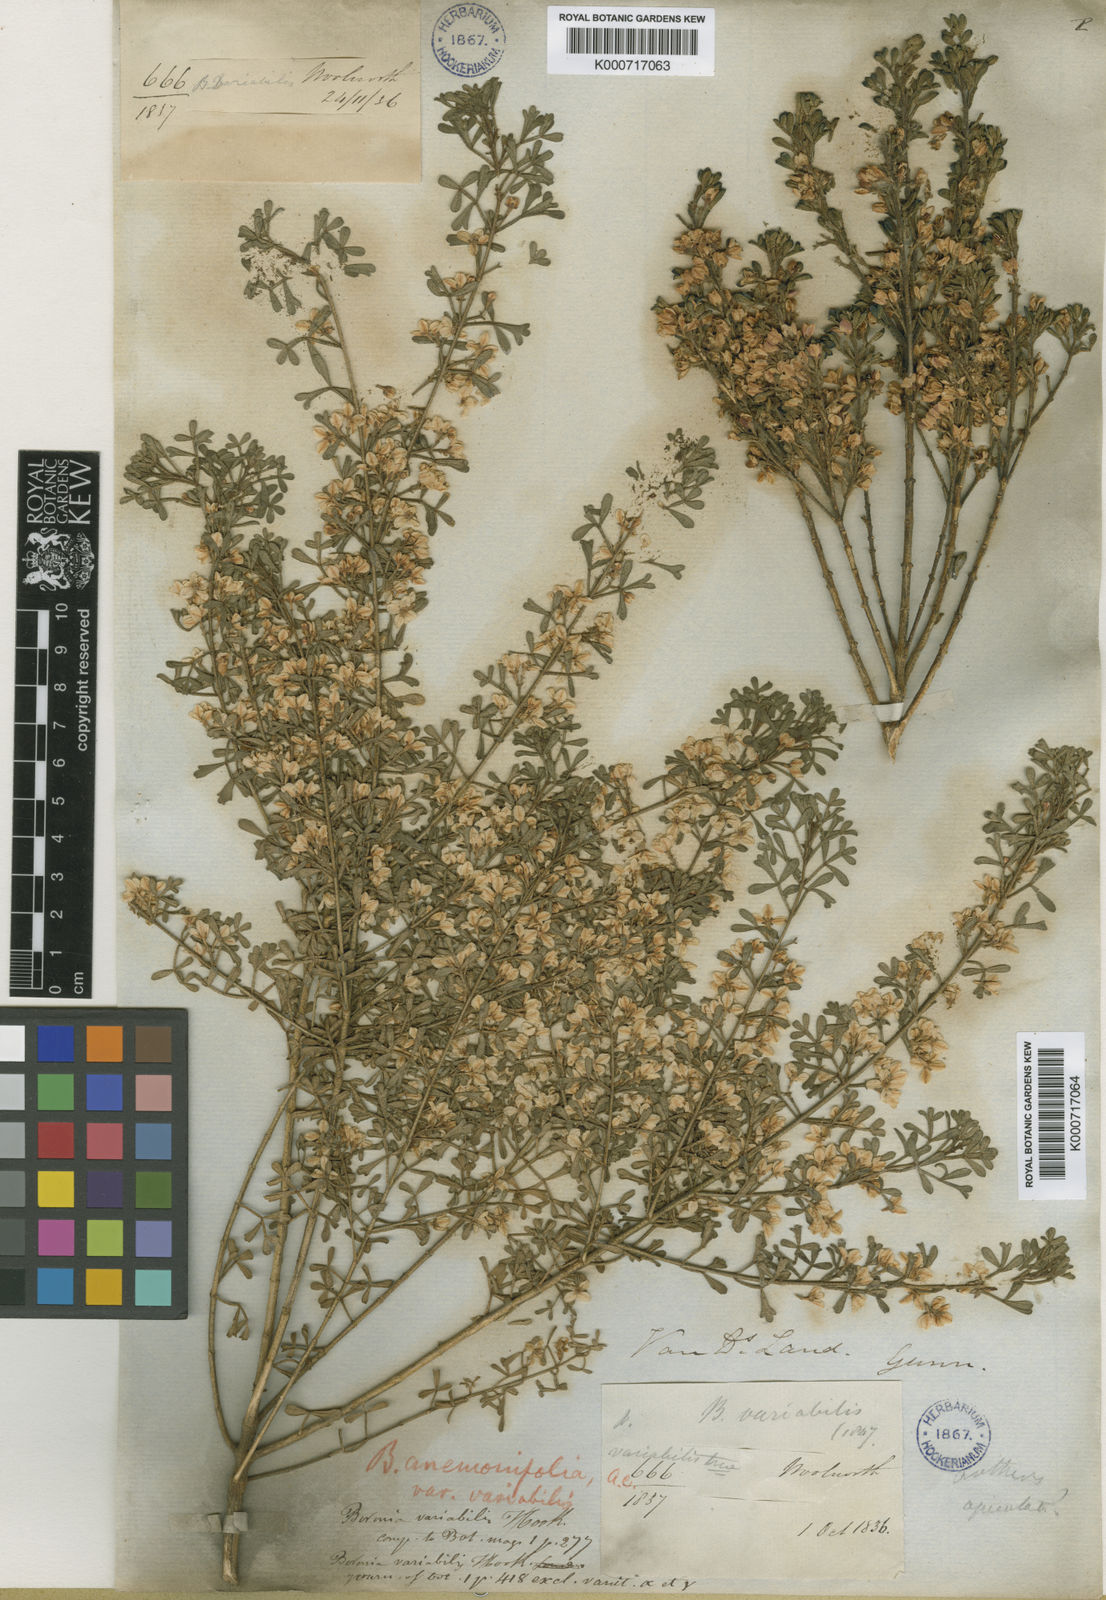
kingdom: Plantae
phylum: Tracheophyta
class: Magnoliopsida
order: Sapindales
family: Rutaceae
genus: Cyanothamnus
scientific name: Cyanothamnus anemonifolius
